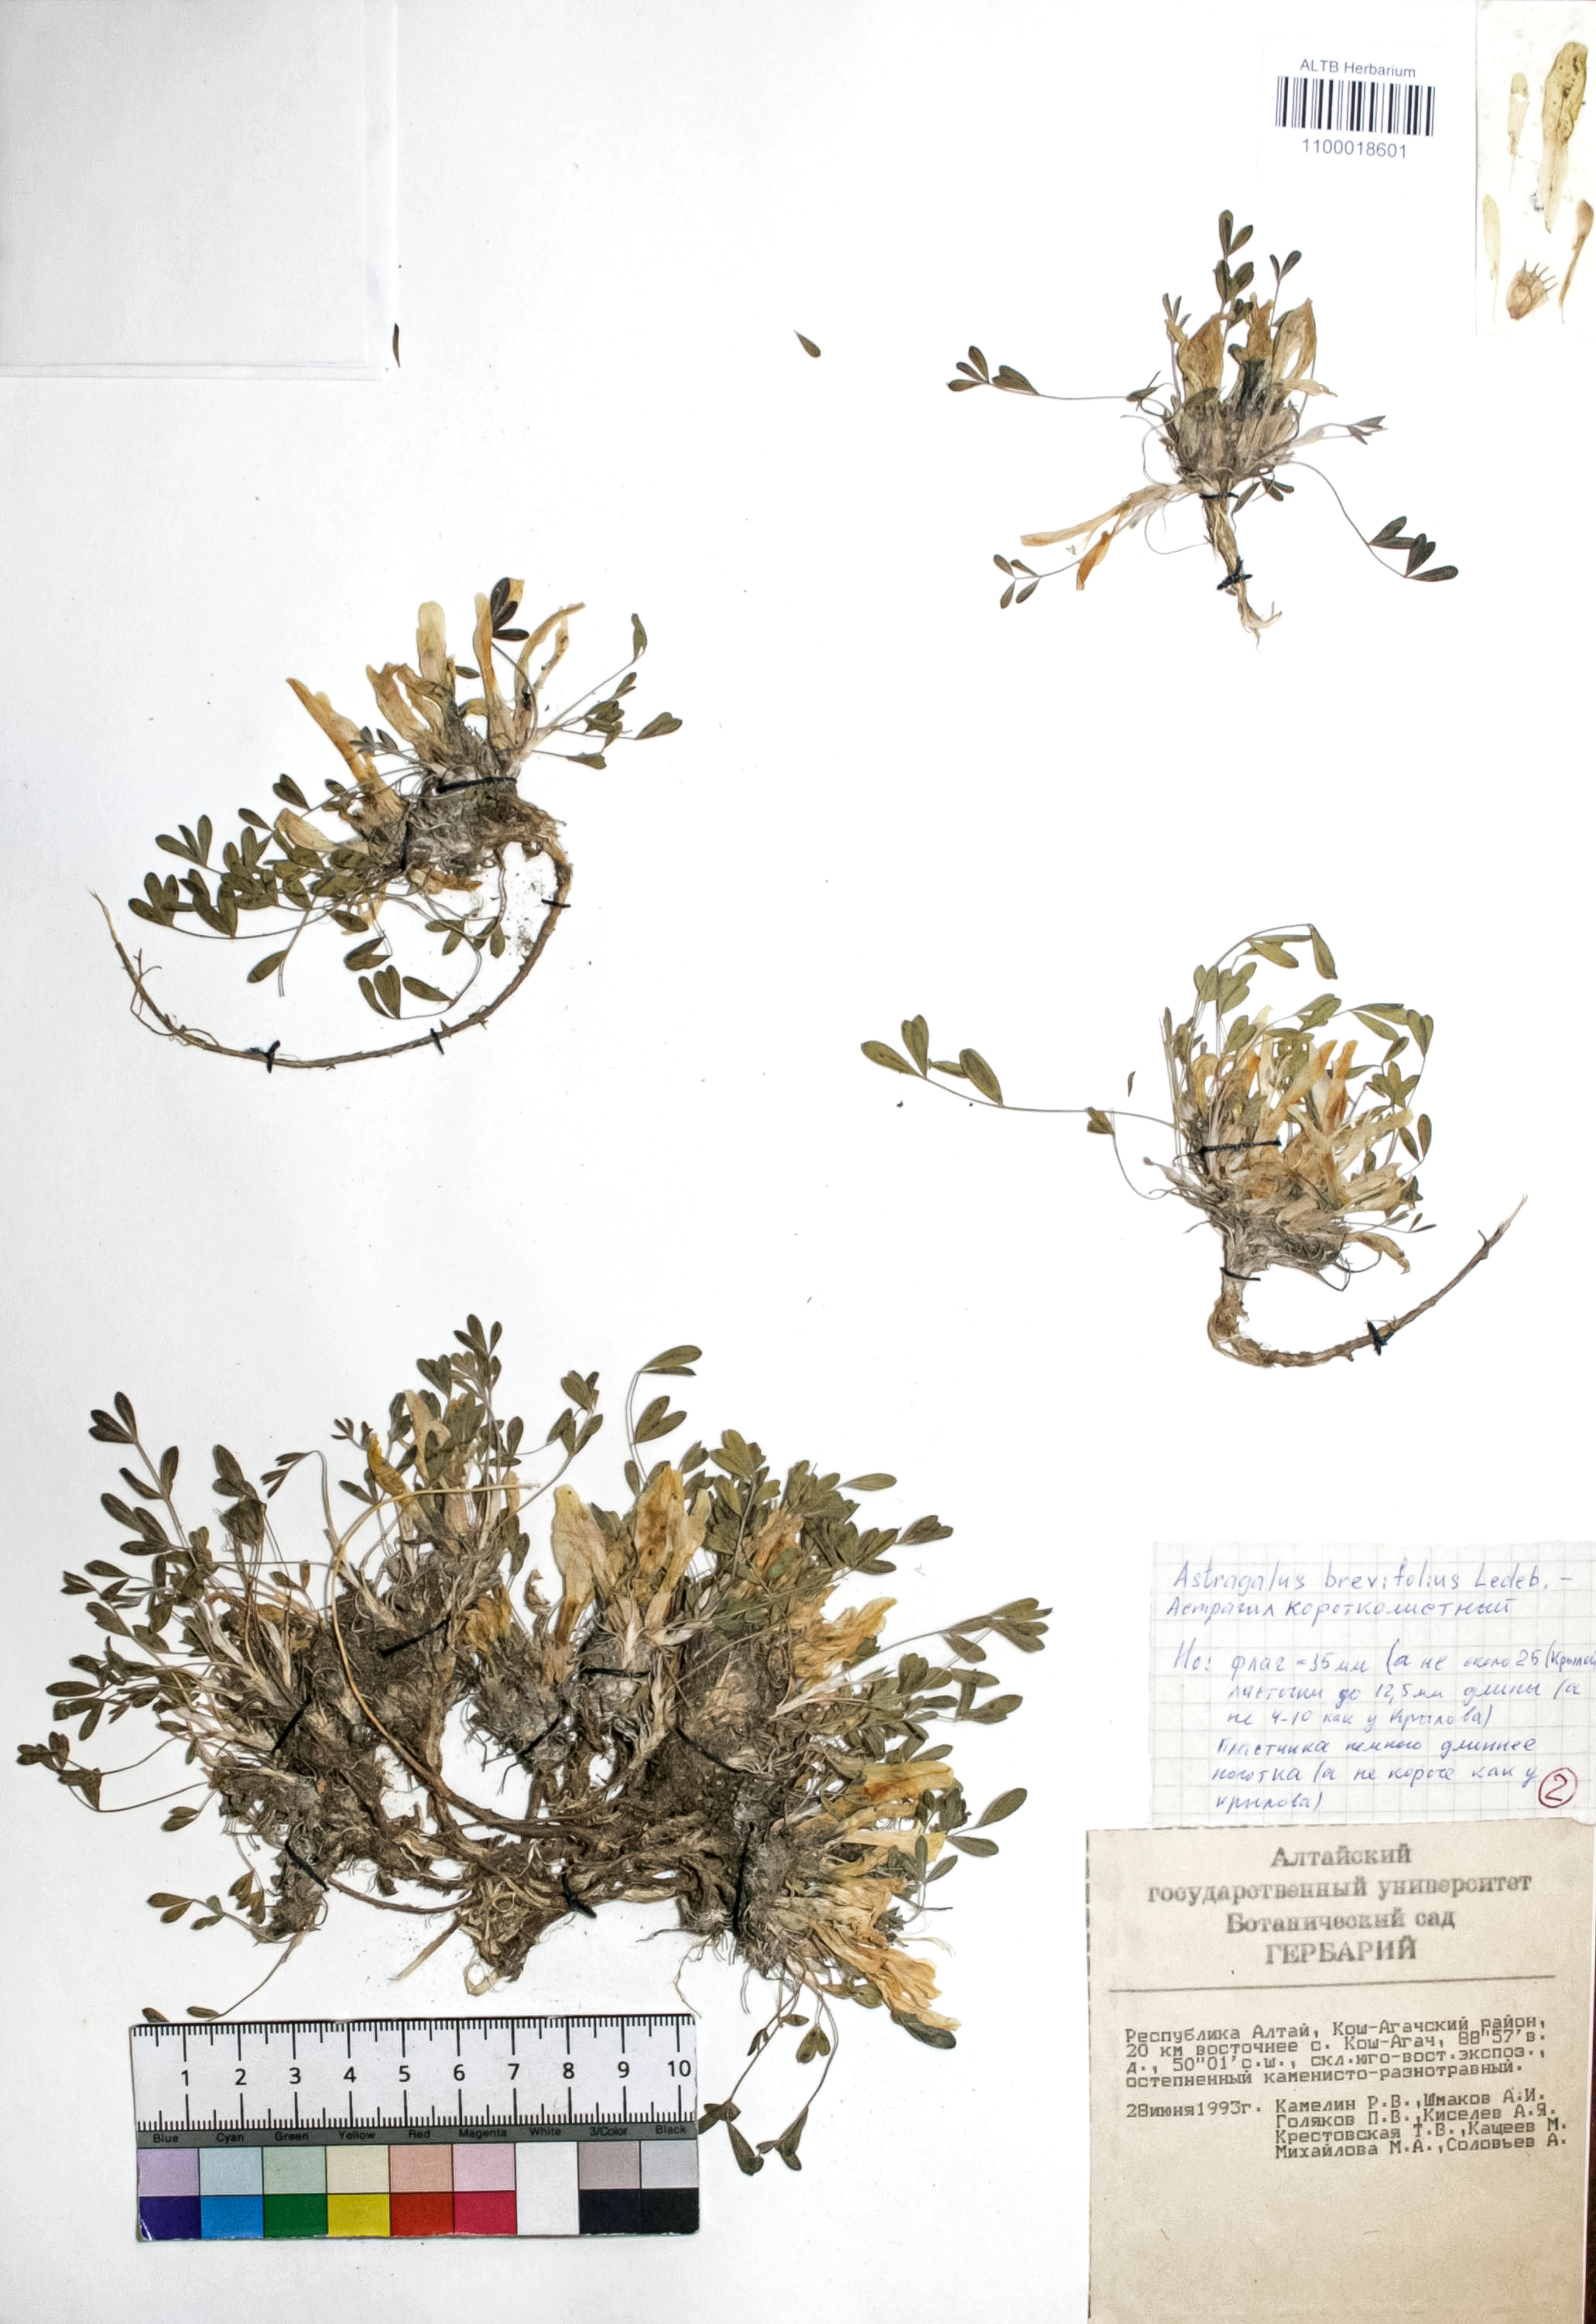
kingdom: Plantae
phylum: Tracheophyta
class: Magnoliopsida
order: Fabales
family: Fabaceae
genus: Astragalus
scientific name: Astragalus brevifolius
